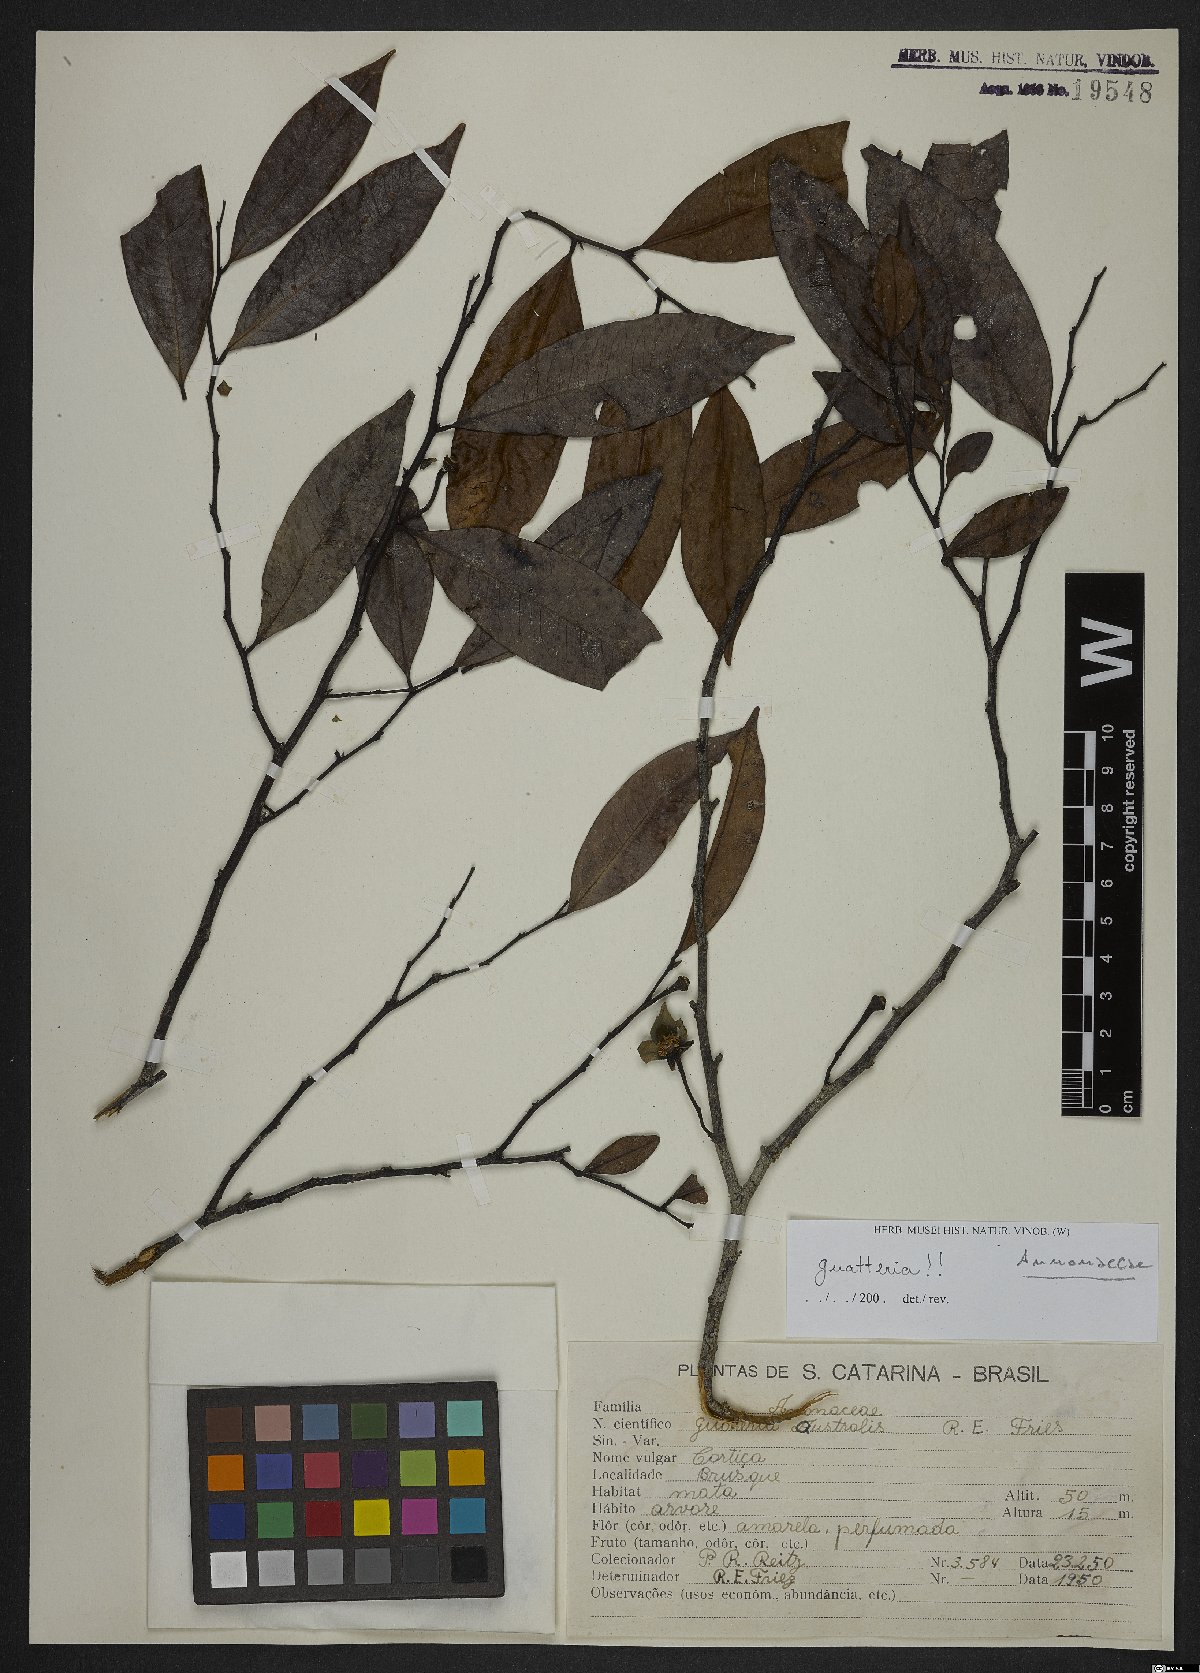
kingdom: Plantae
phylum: Tracheophyta
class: Magnoliopsida
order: Magnoliales
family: Annonaceae
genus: Guatteria
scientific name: Guatteria australis
